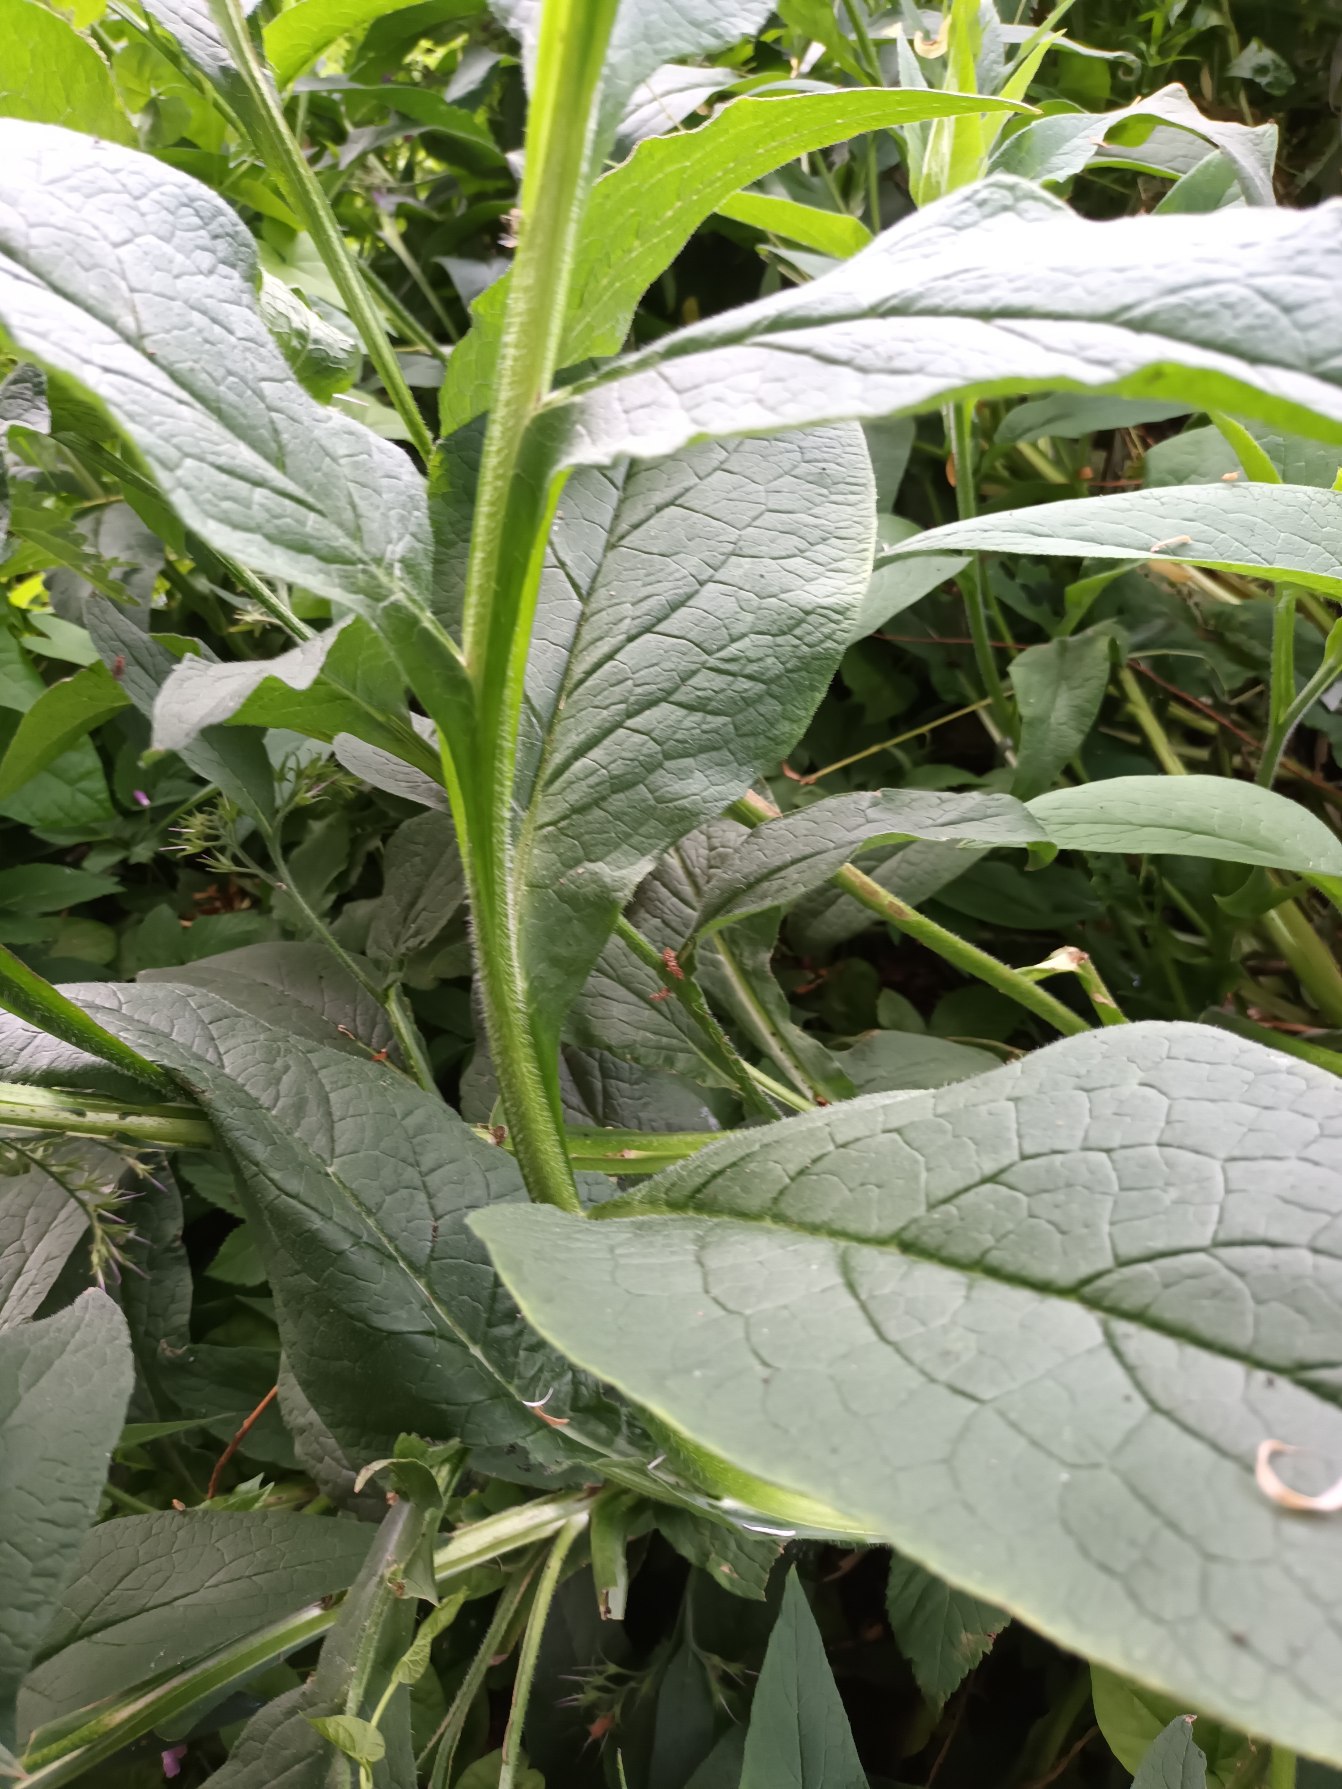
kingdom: Plantae
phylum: Tracheophyta
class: Magnoliopsida
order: Boraginales
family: Boraginaceae
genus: Symphytum
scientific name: Symphytum officinale
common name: Læge-kulsukker
